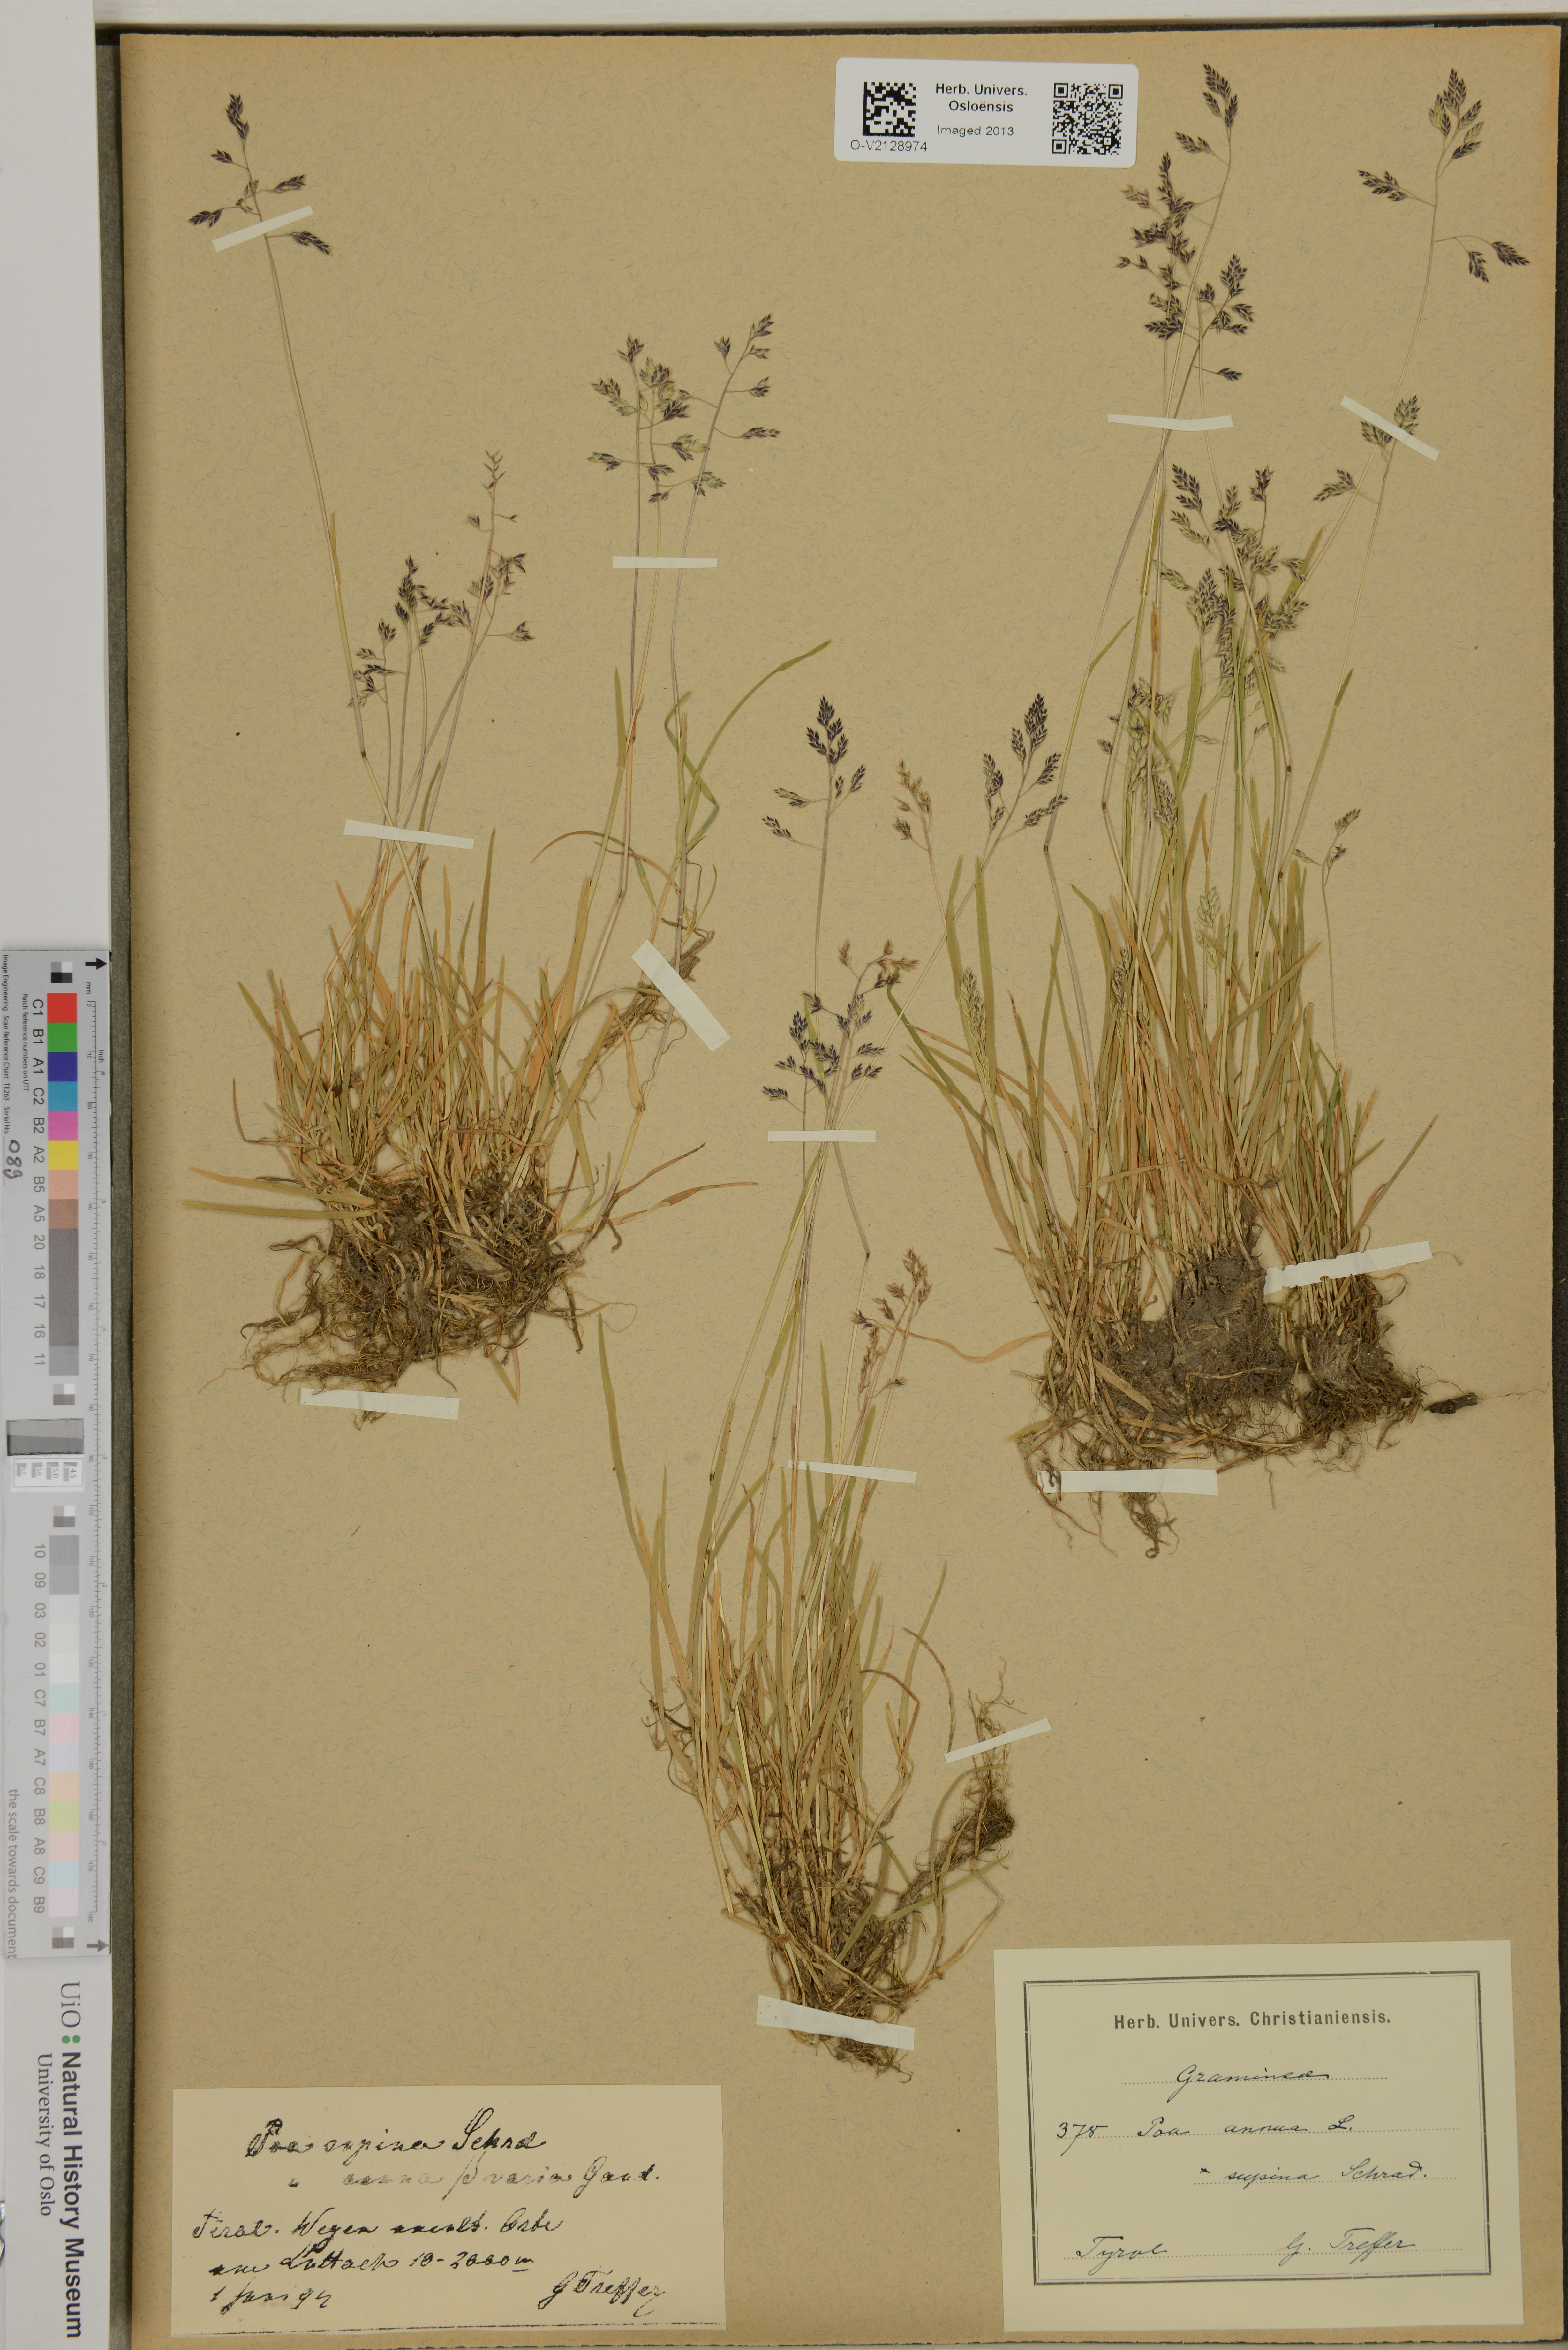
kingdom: Plantae
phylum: Tracheophyta
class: Liliopsida
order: Poales
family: Poaceae
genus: Poa
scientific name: Poa annua
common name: Annual bluegrass
